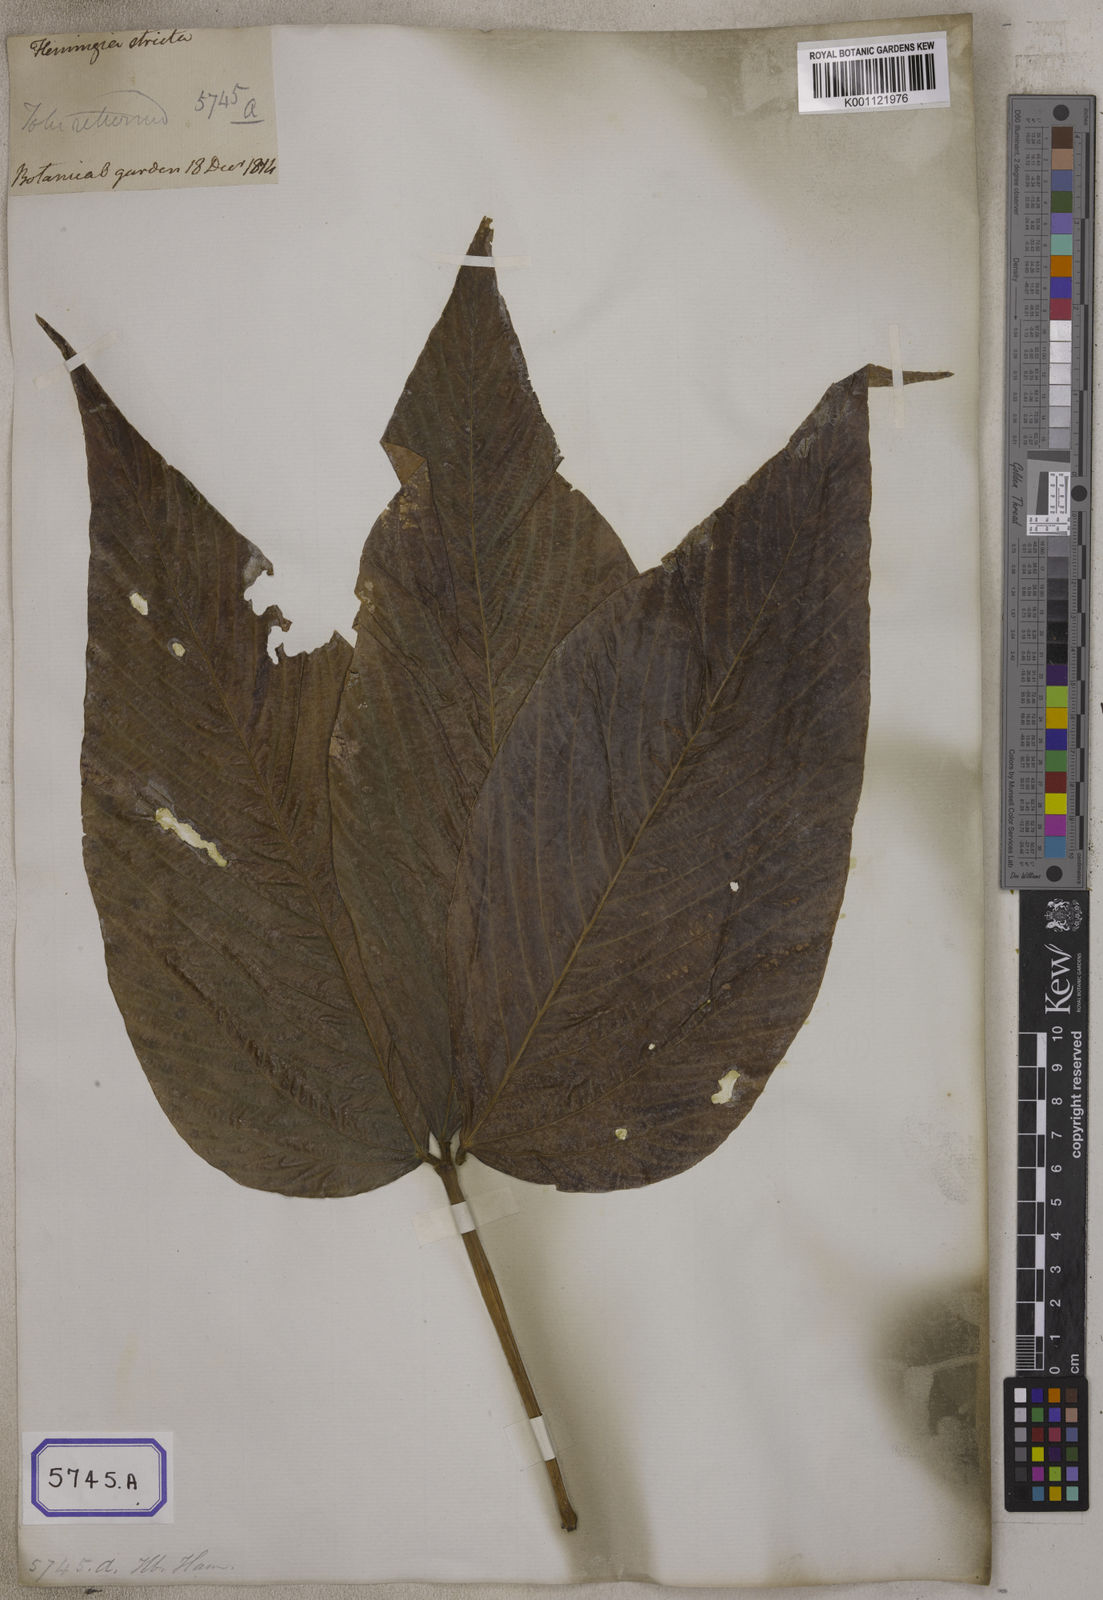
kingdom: Plantae
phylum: Tracheophyta
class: Magnoliopsida
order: Fabales
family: Fabaceae
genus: Flemingia
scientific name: Flemingia
